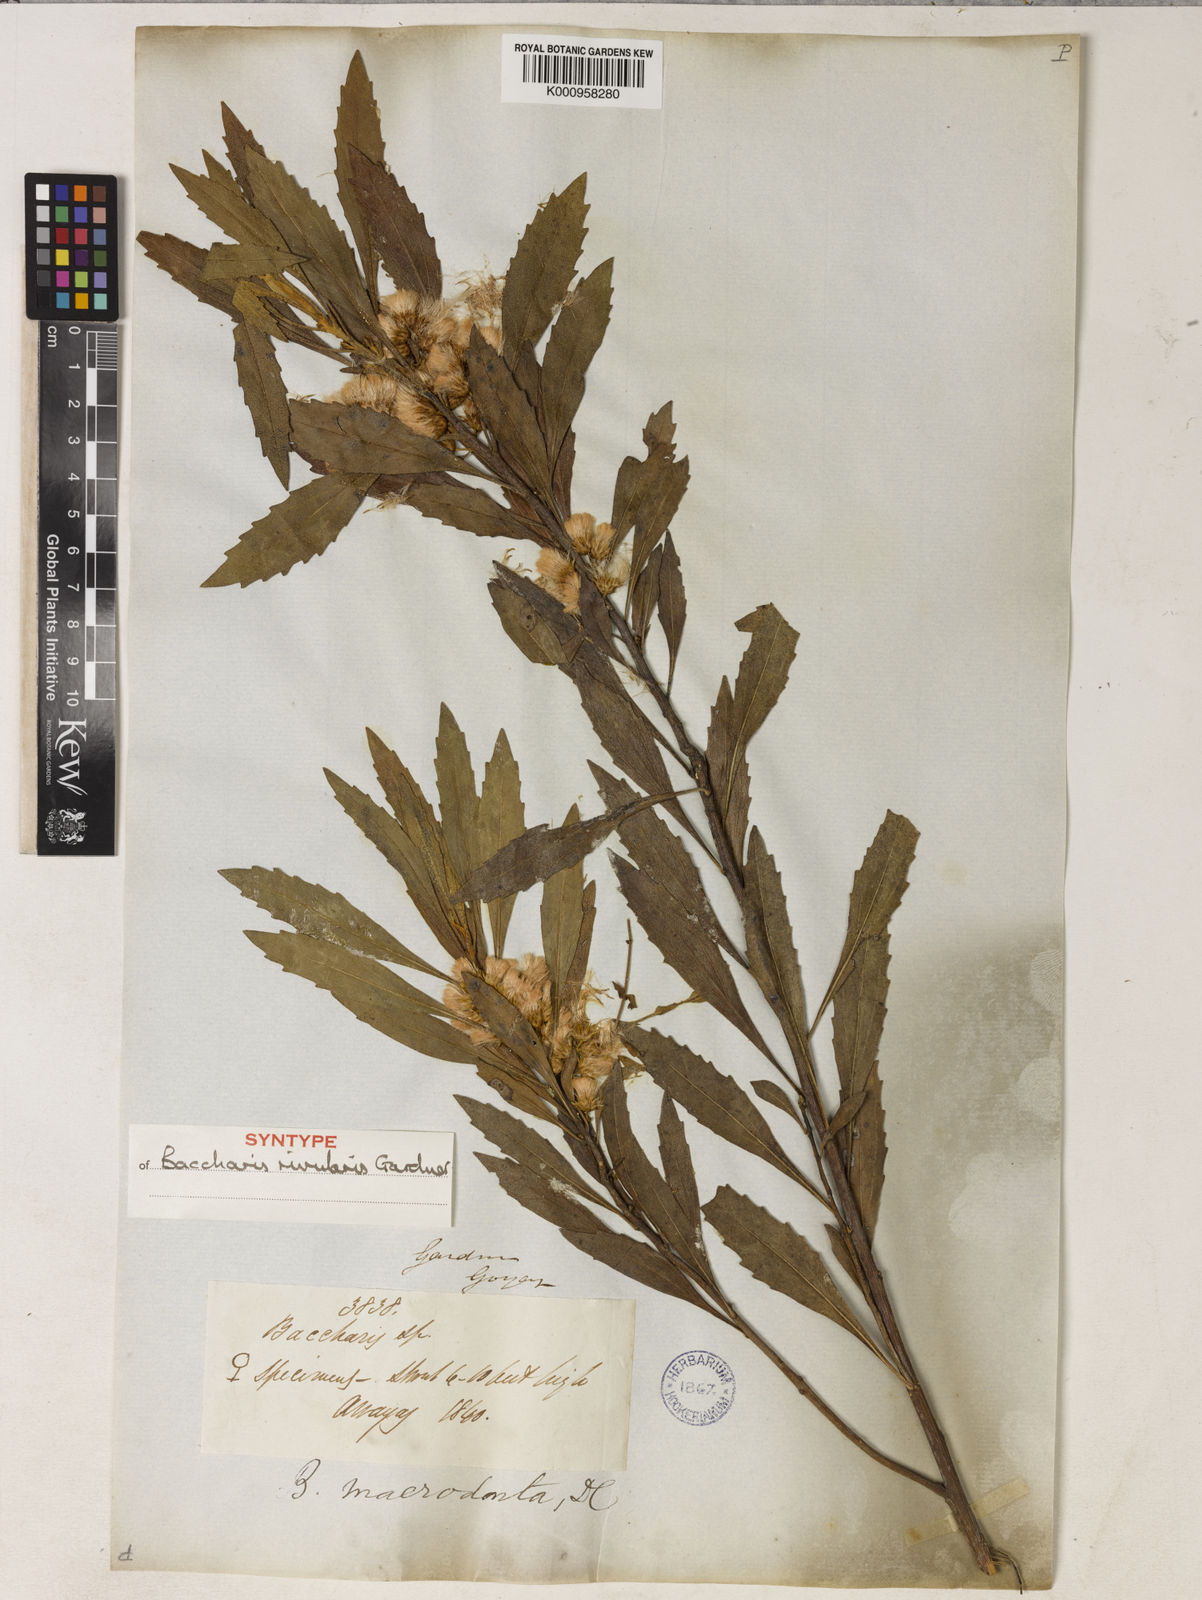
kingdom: Plantae
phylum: Tracheophyta
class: Magnoliopsida
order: Asterales
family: Asteraceae
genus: Baccharis
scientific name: Baccharis rivularis
